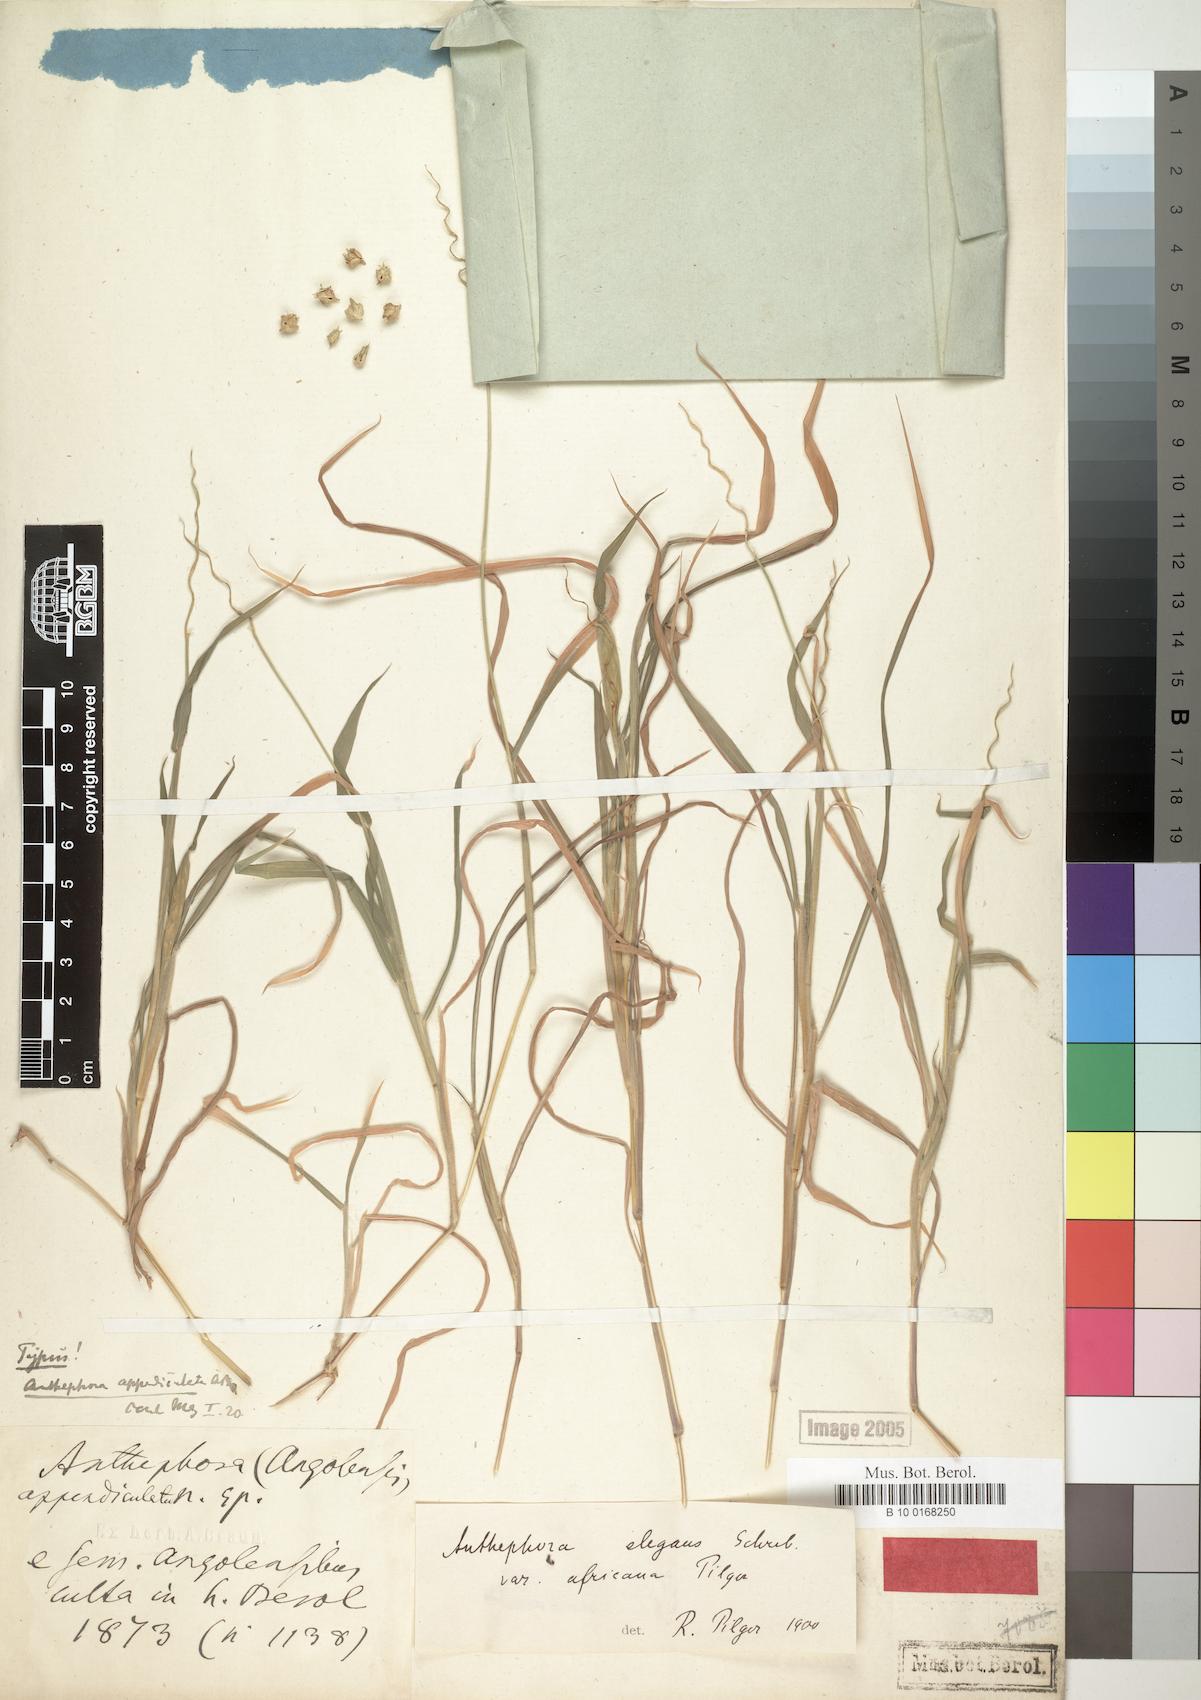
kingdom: Plantae
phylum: Tracheophyta
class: Liliopsida
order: Poales
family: Poaceae
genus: Anthephora
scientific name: Anthephora cristata
